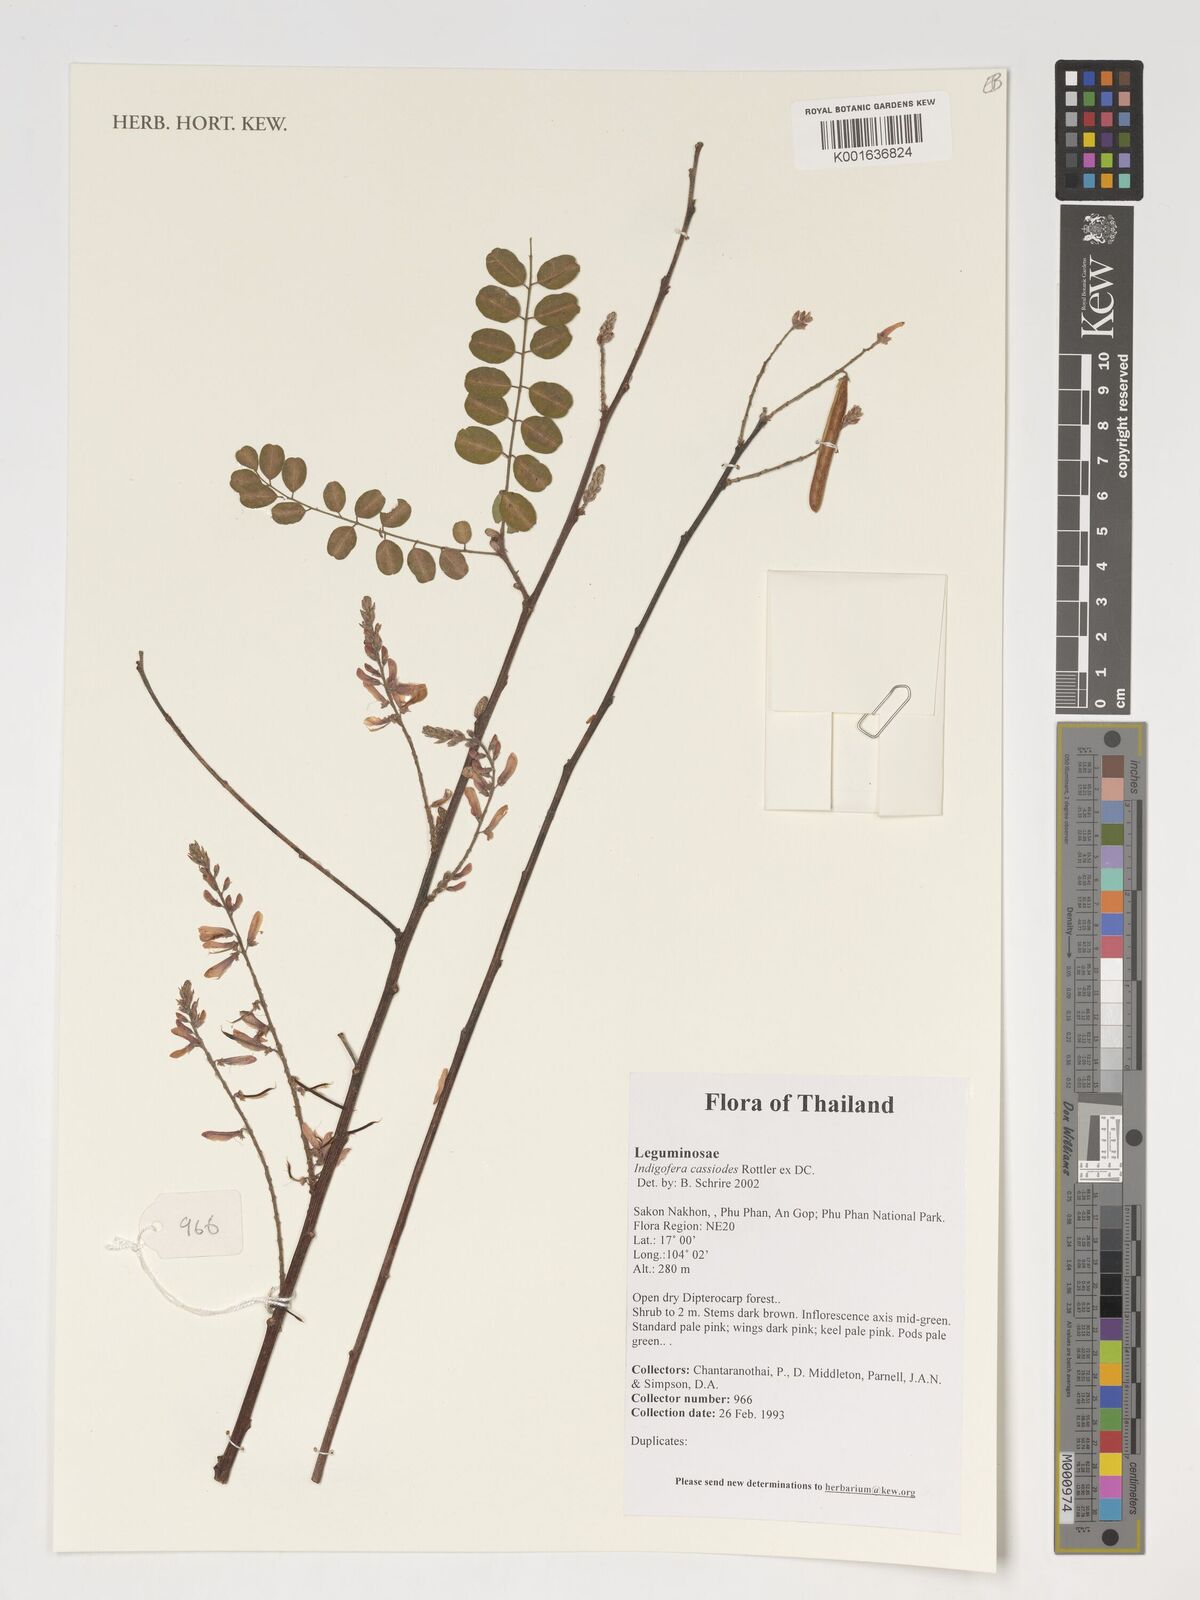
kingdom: Plantae
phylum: Tracheophyta
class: Magnoliopsida
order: Fabales
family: Fabaceae
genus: Indigofera
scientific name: Indigofera cassioides
